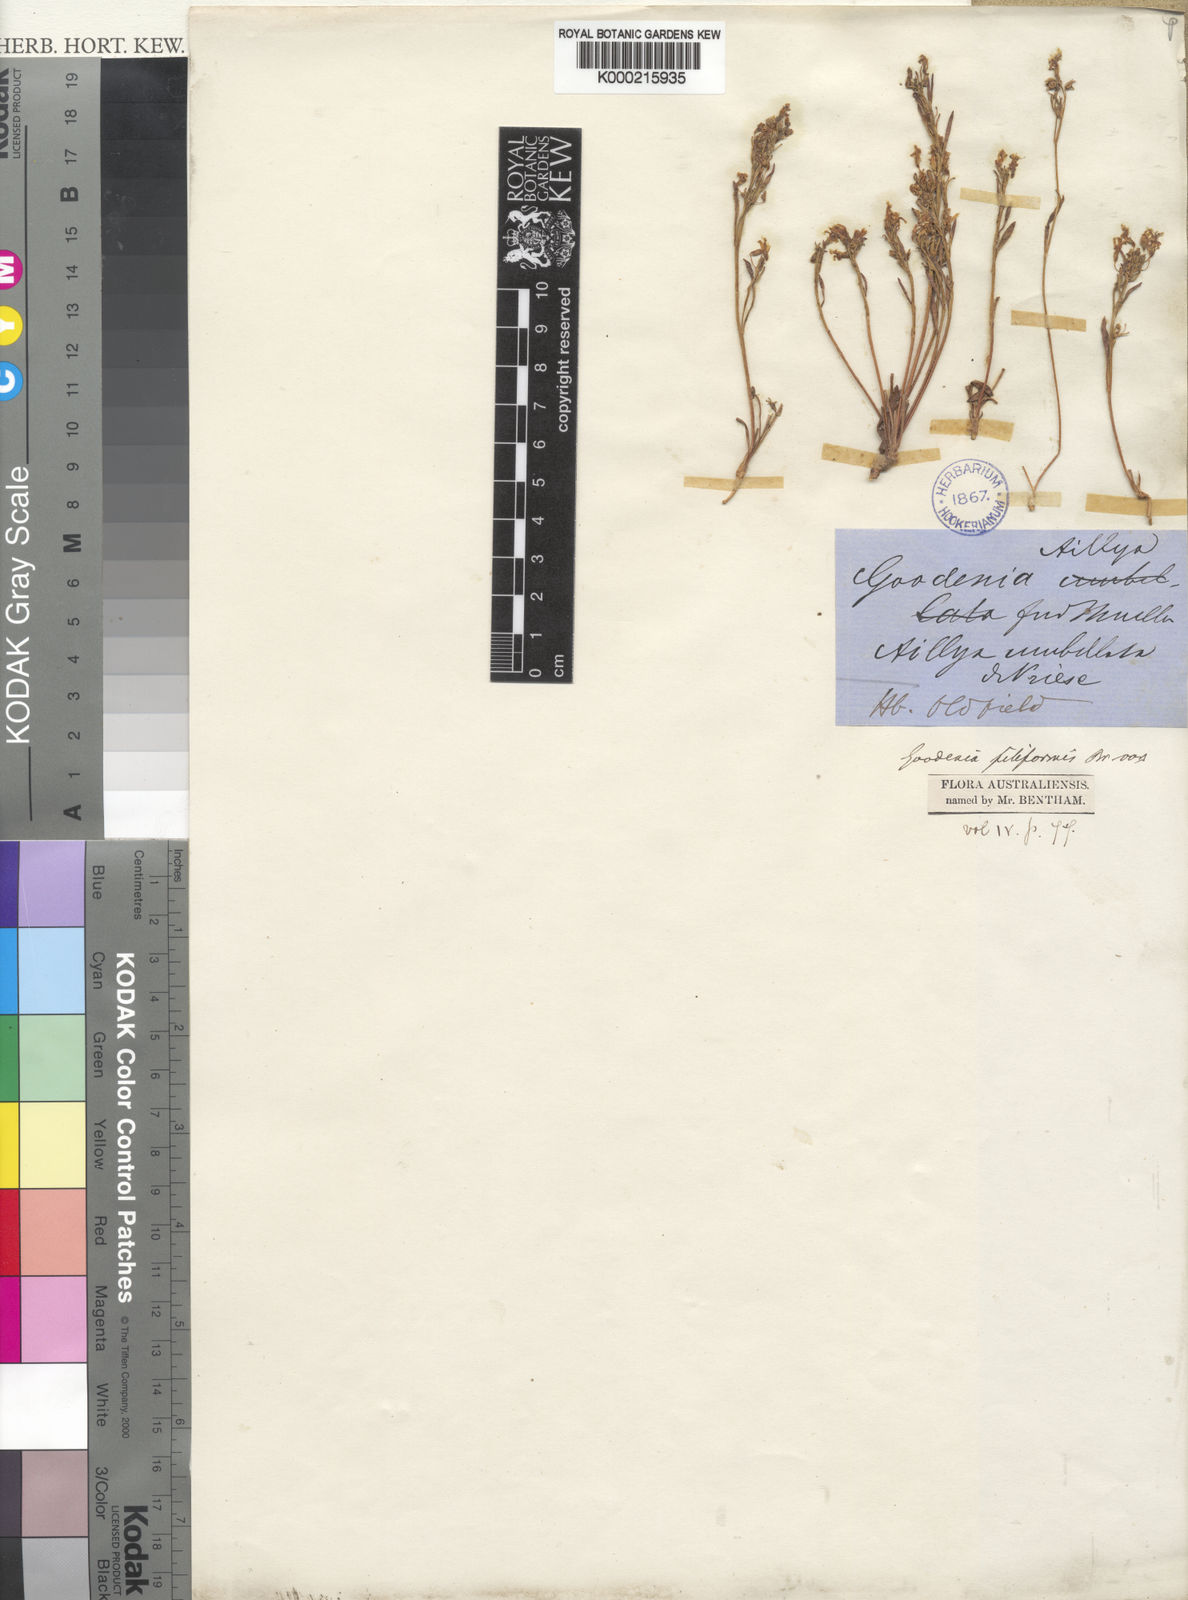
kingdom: Plantae
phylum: Tracheophyta
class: Magnoliopsida
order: Asterales
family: Goodeniaceae
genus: Goodenia
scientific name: Goodenia filiformis
